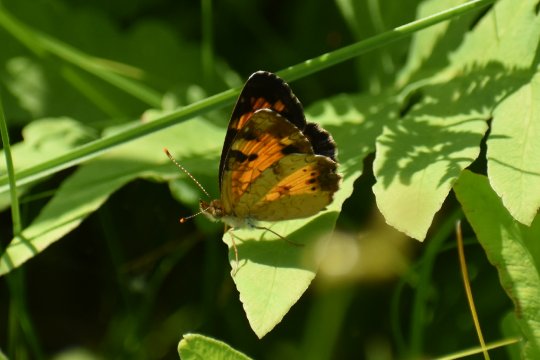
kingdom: Animalia
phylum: Arthropoda
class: Insecta
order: Lepidoptera
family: Nymphalidae
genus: Phyciodes
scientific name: Phyciodes
